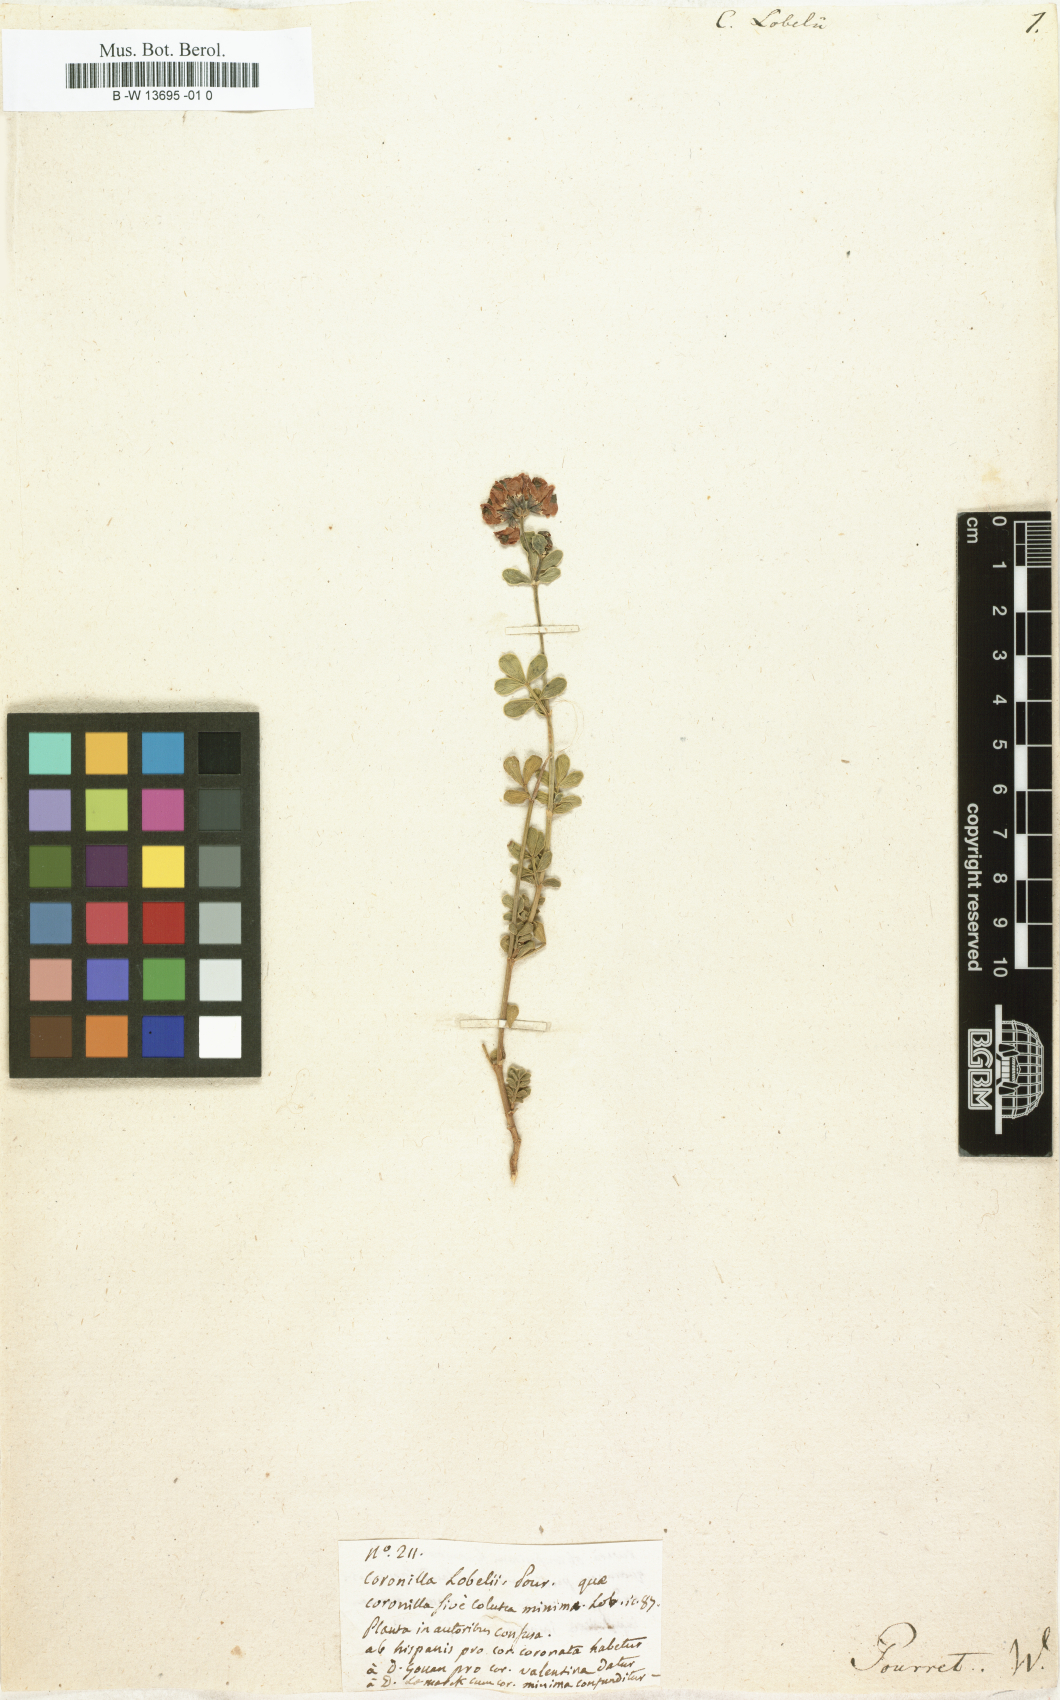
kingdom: Plantae
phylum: Tracheophyta
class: Magnoliopsida
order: Fabales
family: Fabaceae
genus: Coronilla
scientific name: Coronilla
